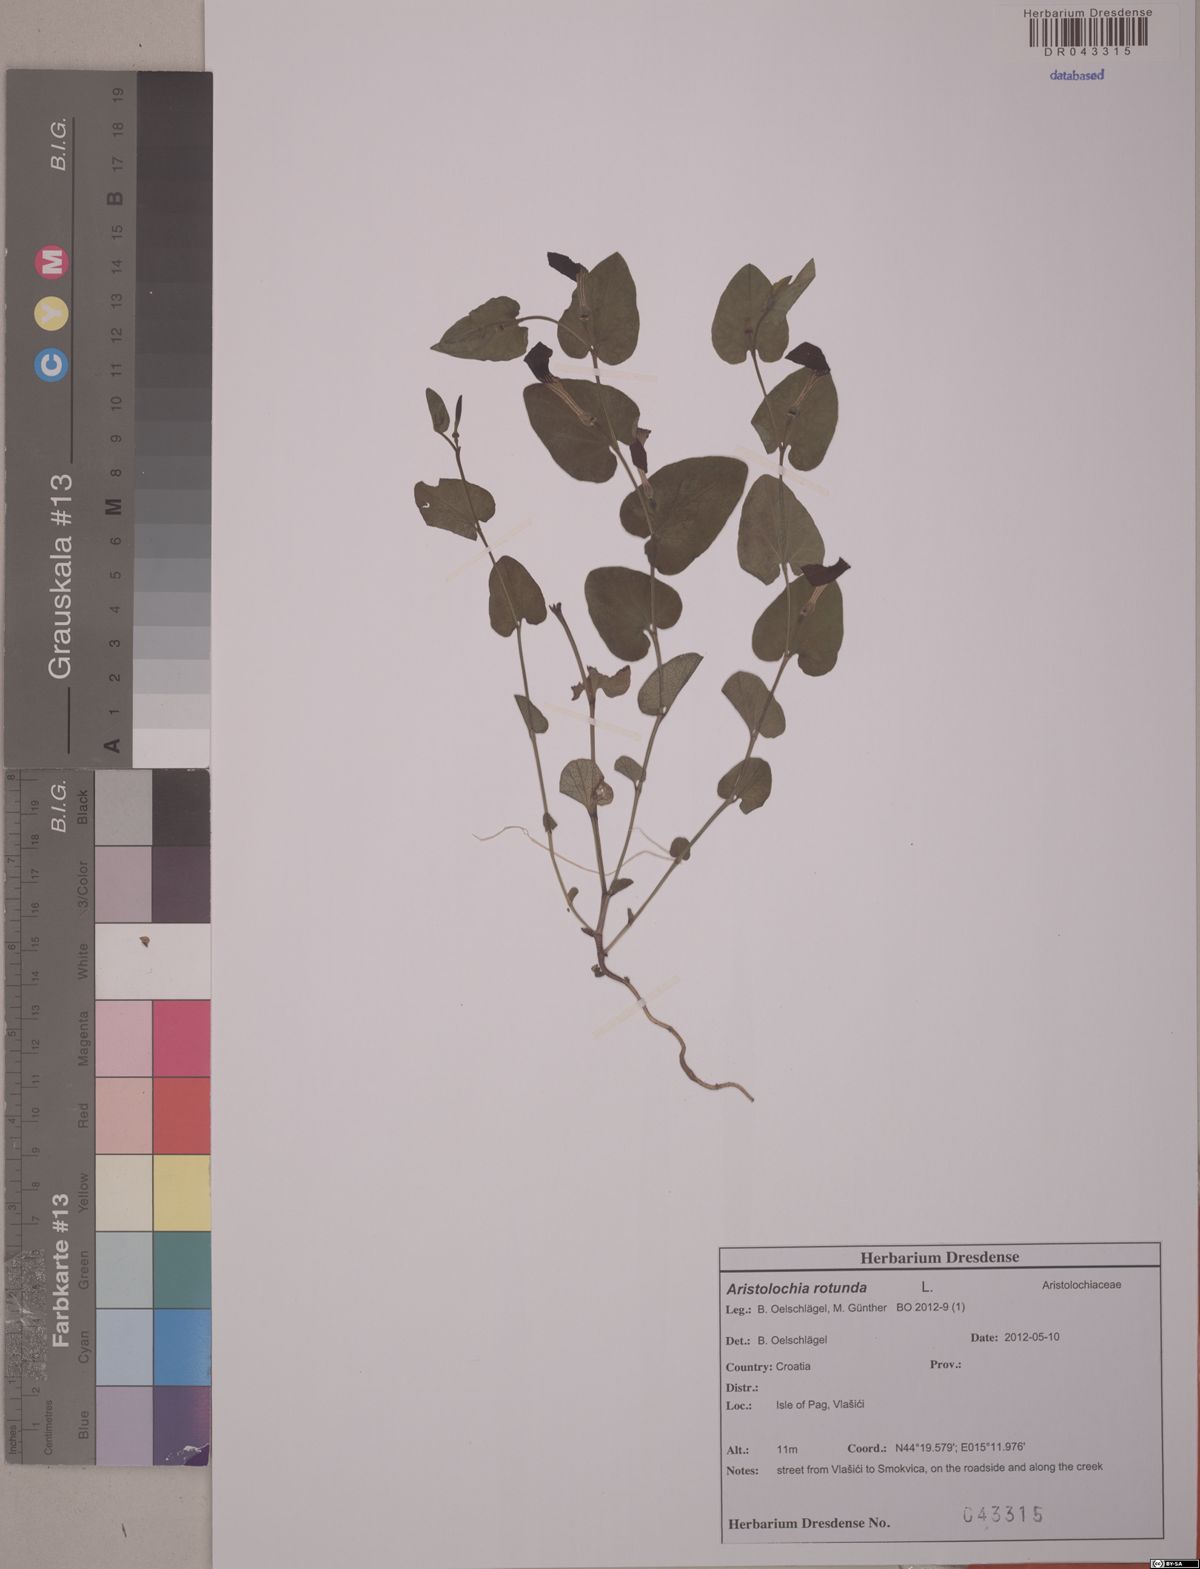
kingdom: Plantae
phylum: Tracheophyta
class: Magnoliopsida
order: Piperales
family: Aristolochiaceae
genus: Aristolochia
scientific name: Aristolochia rotunda
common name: Smearwort
